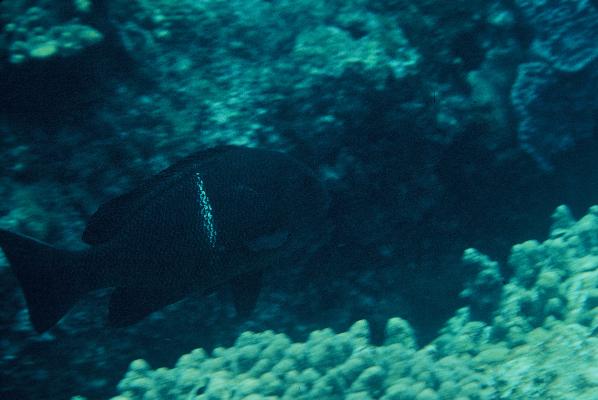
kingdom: Animalia
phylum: Chordata
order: Perciformes
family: Kyphosidae
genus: Girella
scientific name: Girella mezina
